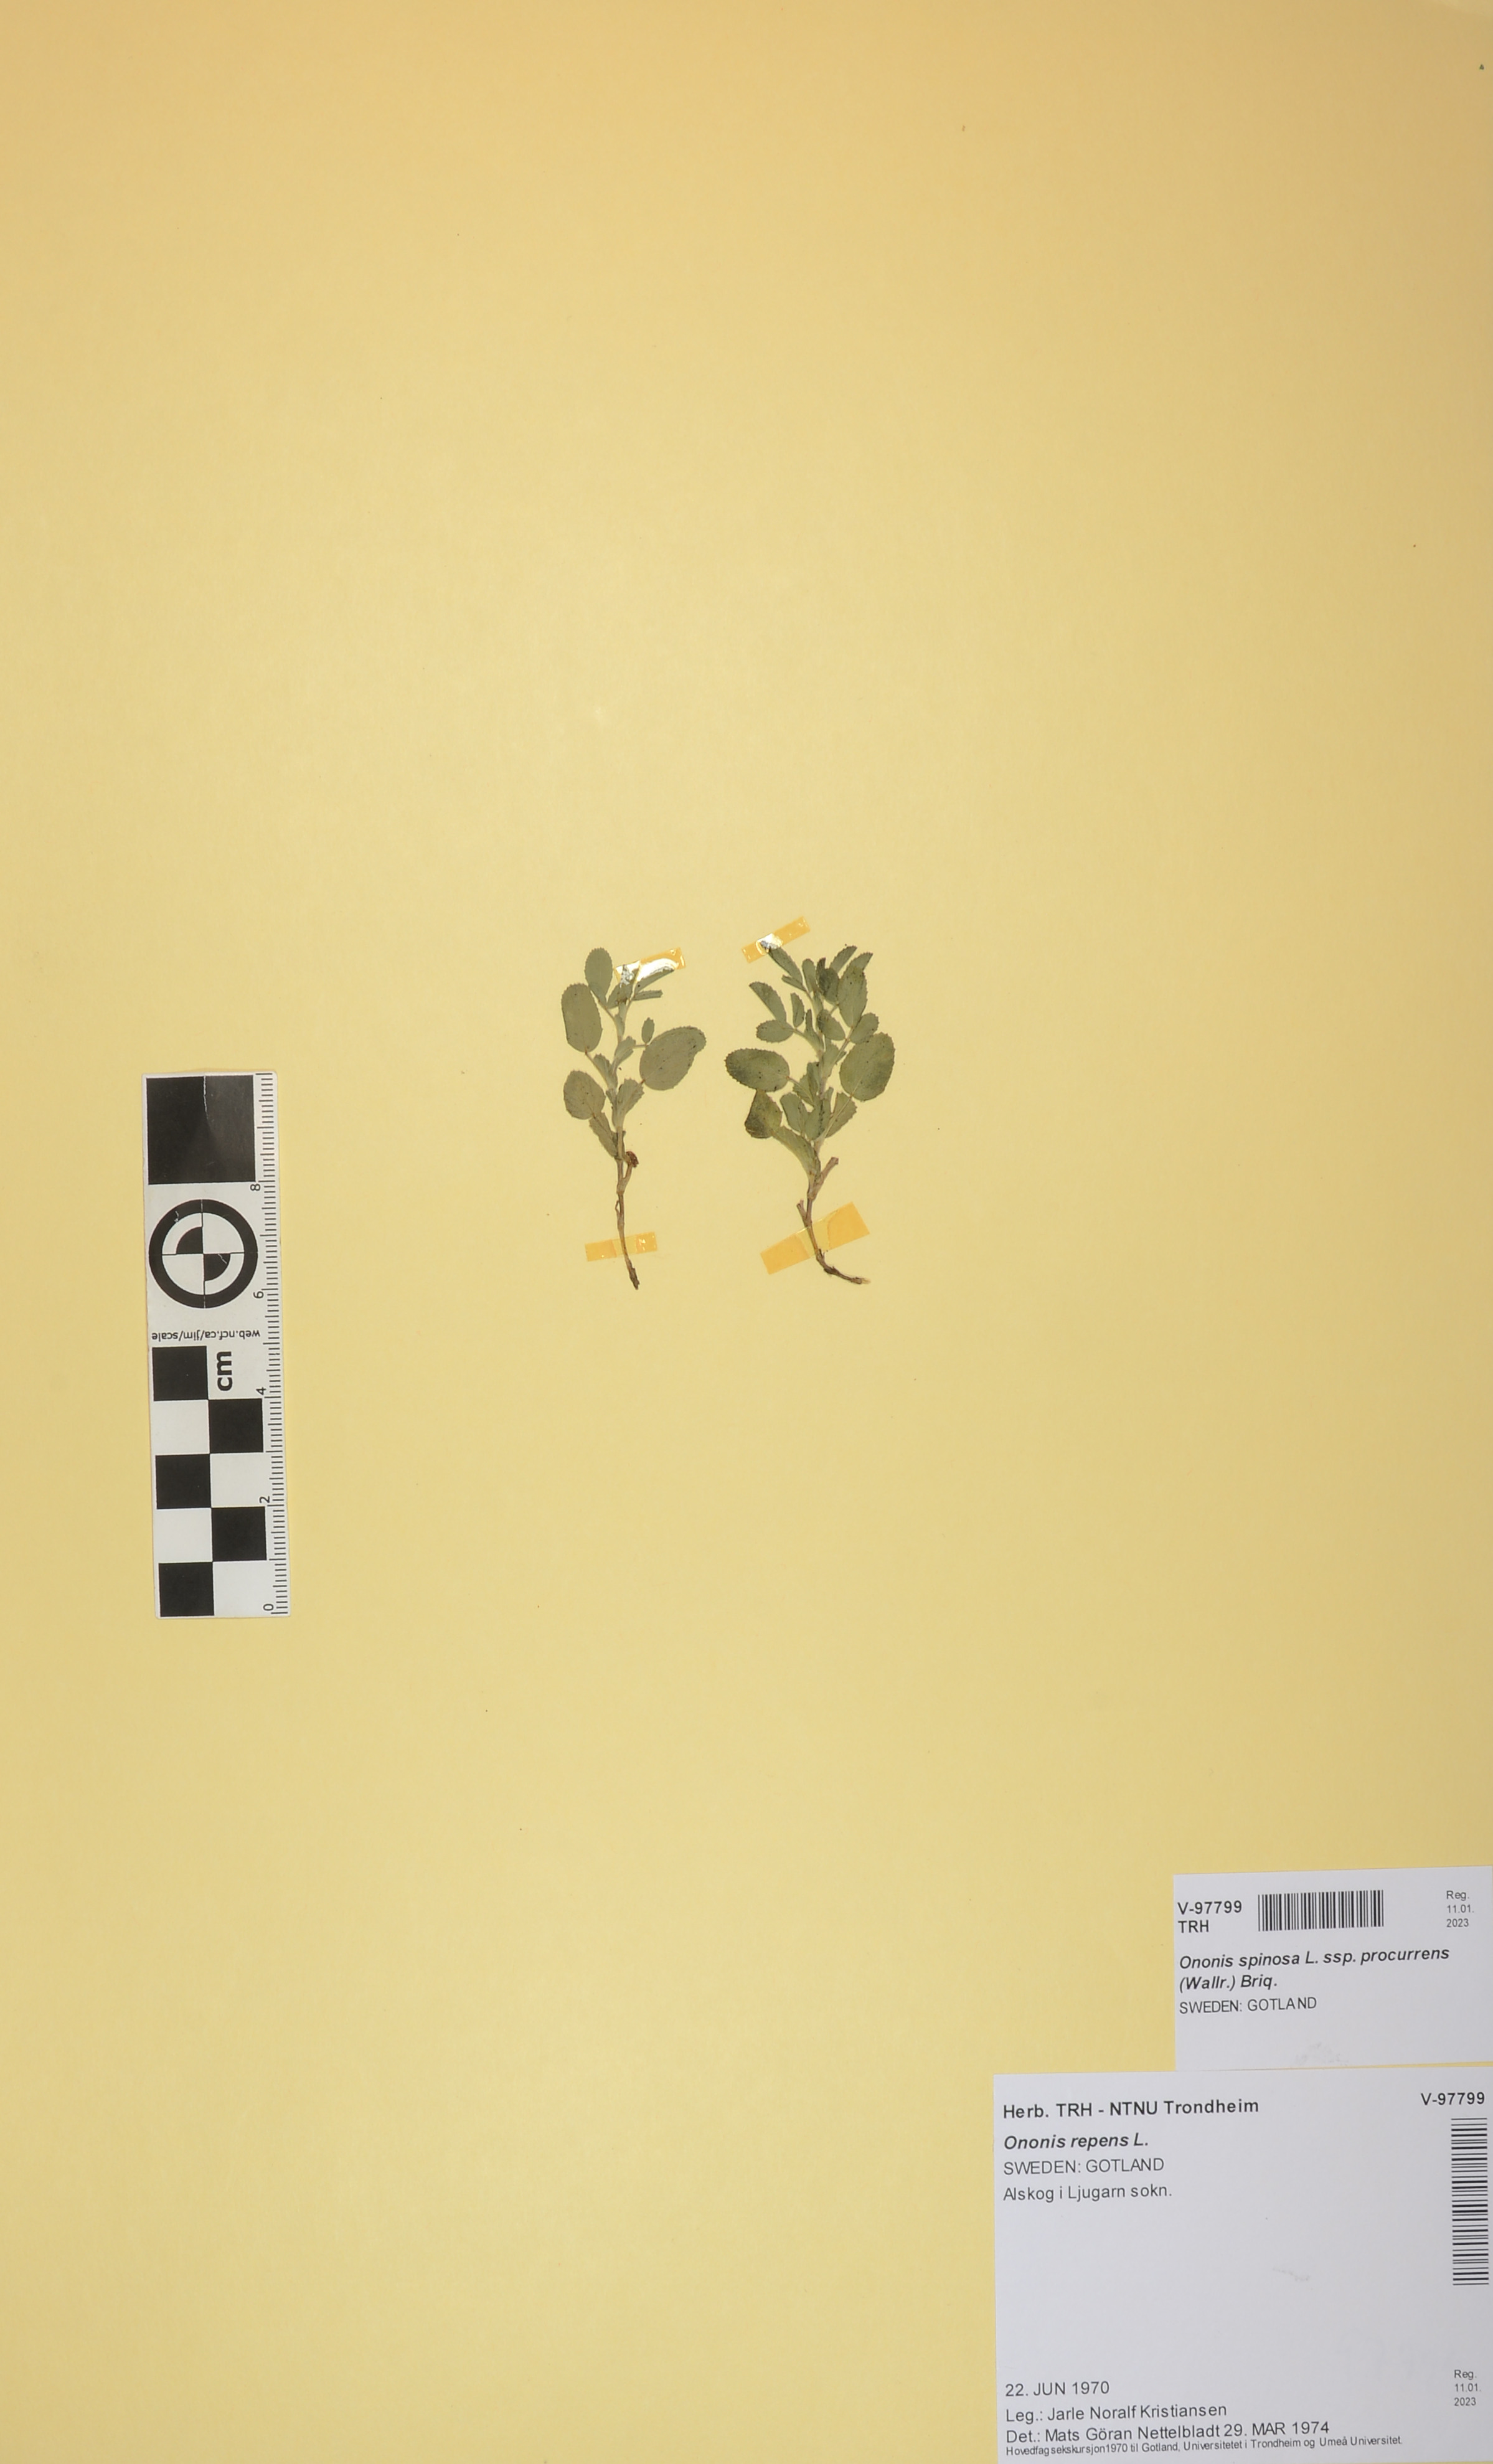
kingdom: Plantae
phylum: Tracheophyta
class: Magnoliopsida
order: Fabales
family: Fabaceae
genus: Ononis
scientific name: Ononis spinosa
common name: Spiny restharrow
